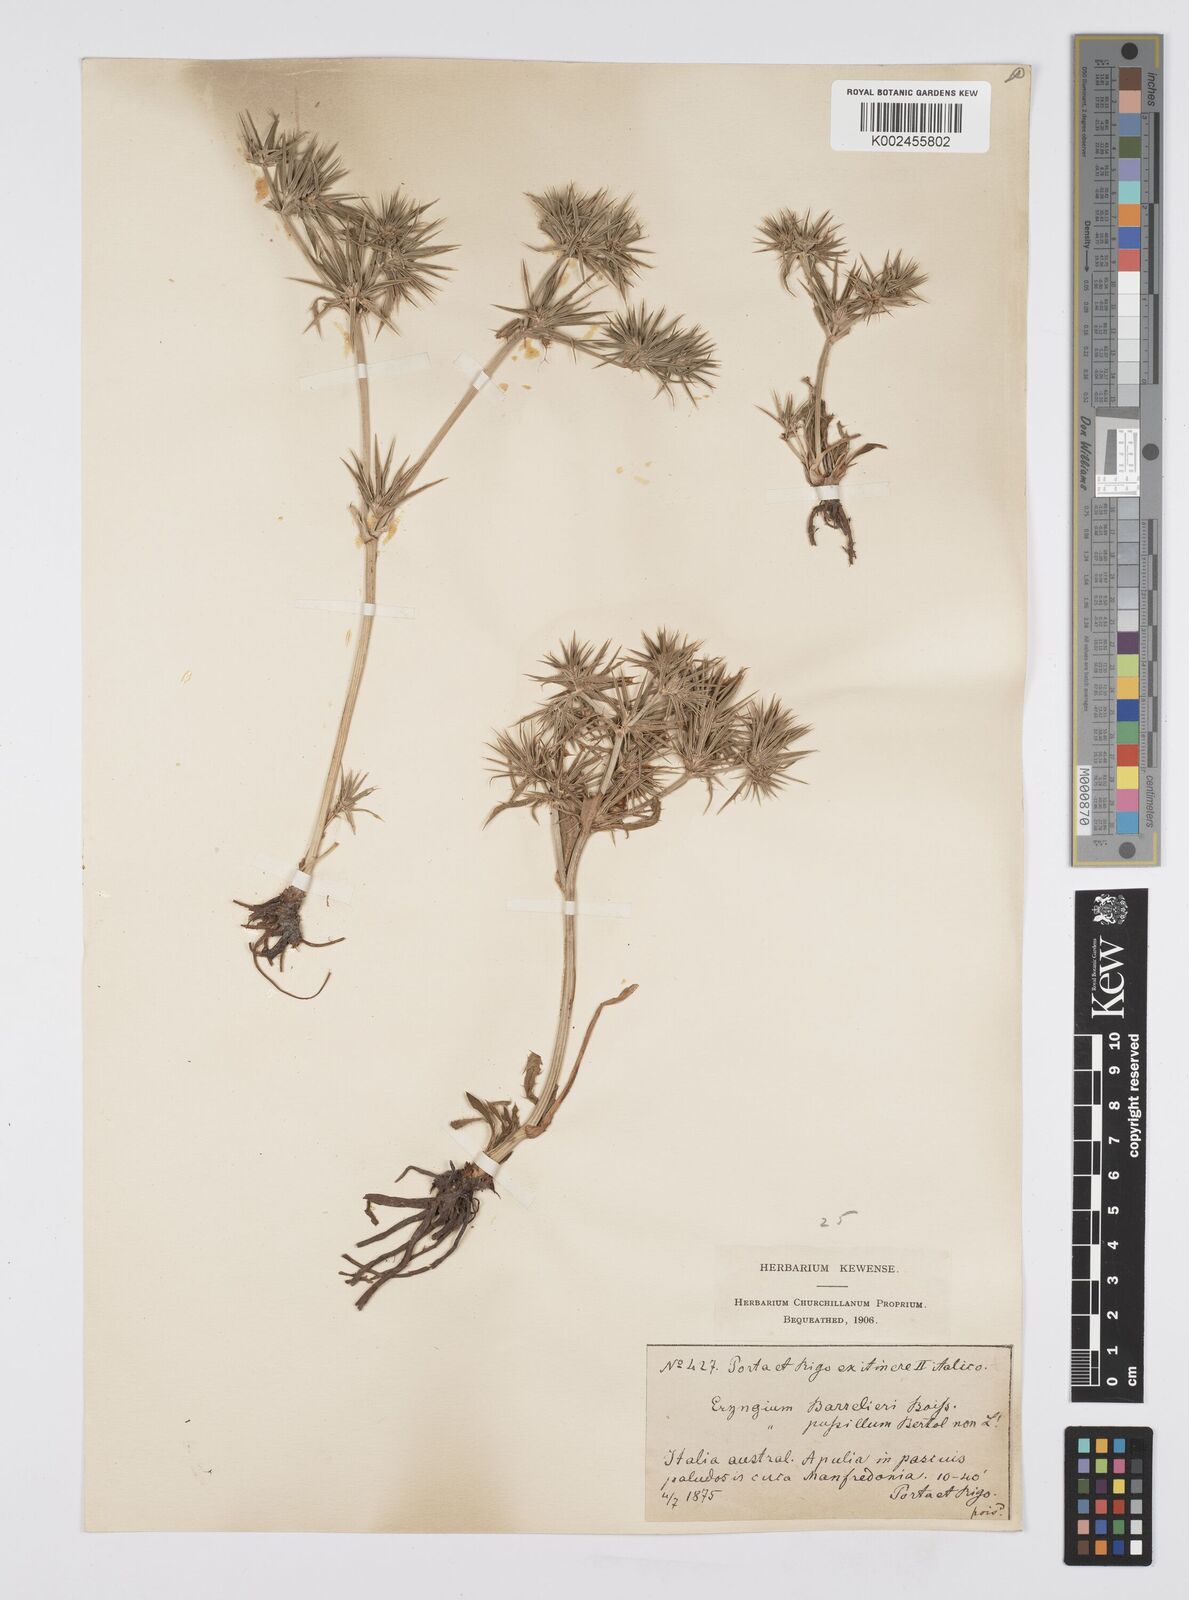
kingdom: Plantae
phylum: Tracheophyta
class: Magnoliopsida
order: Apiales
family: Apiaceae
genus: Eryngium
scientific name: Eryngium pusillum
